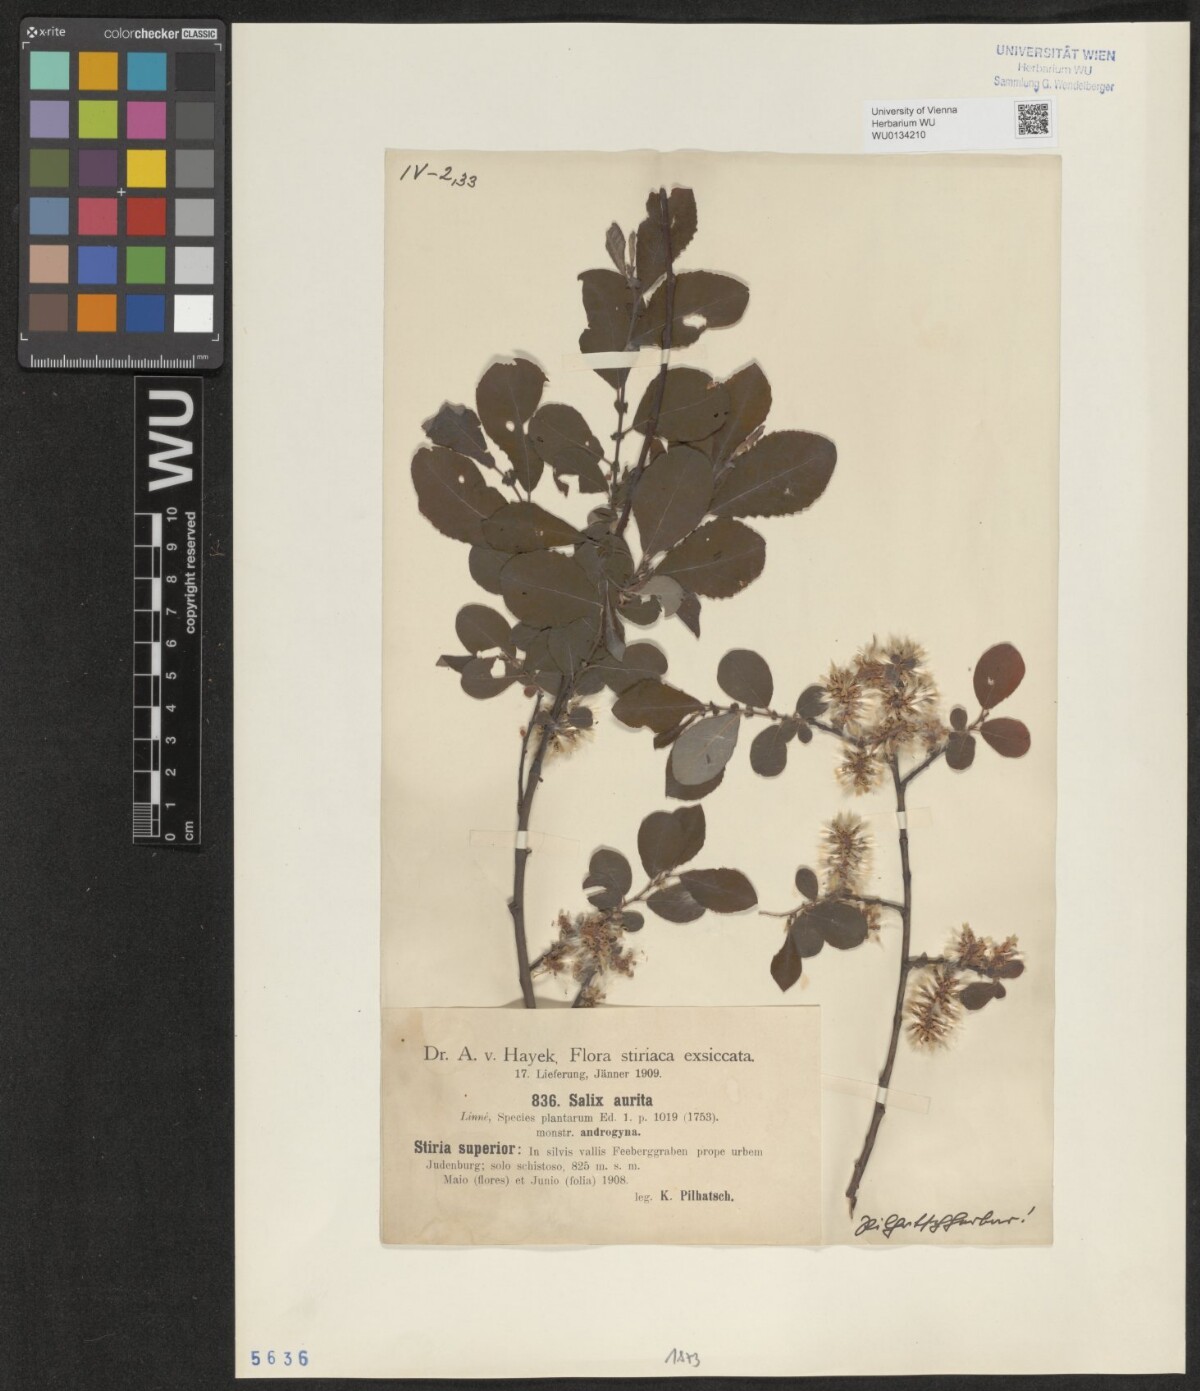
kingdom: Plantae
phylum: Tracheophyta
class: Magnoliopsida
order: Malpighiales
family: Salicaceae
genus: Salix
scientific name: Salix aurita
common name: Eared willow
